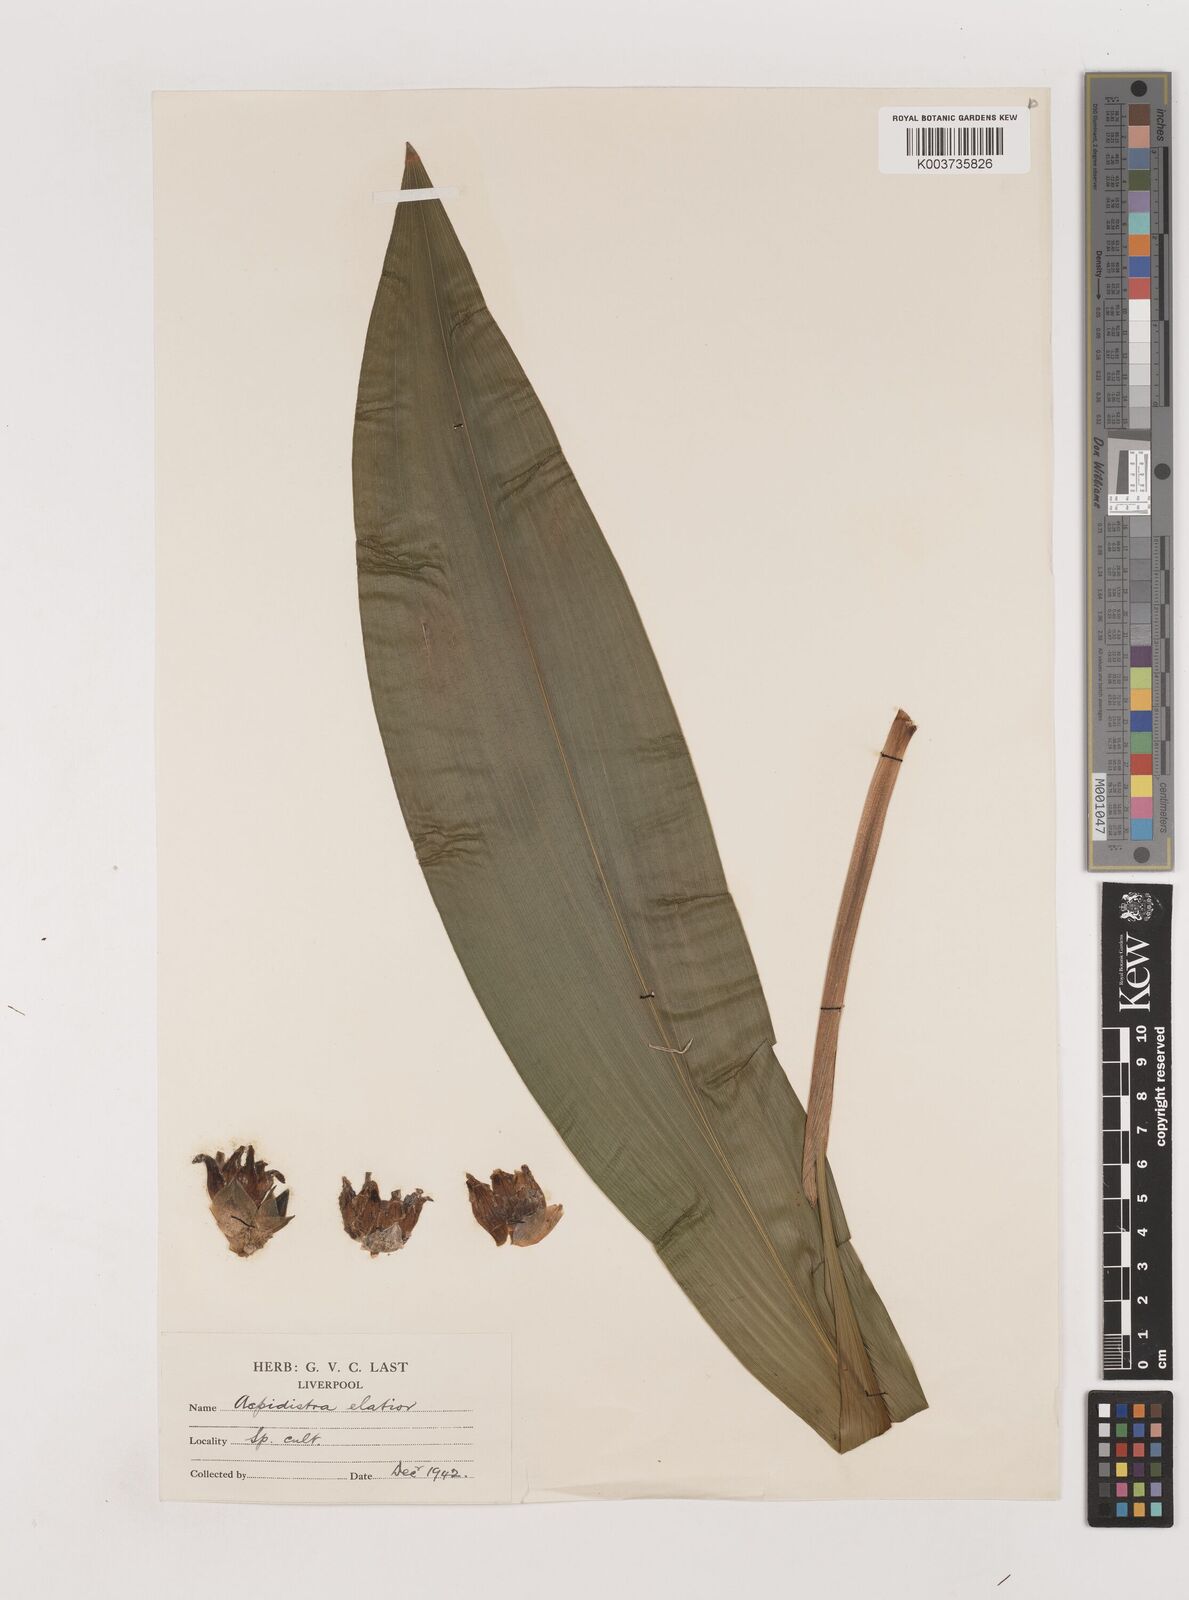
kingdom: Plantae
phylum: Tracheophyta
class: Liliopsida
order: Asparagales
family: Asparagaceae
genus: Aspidistra
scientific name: Aspidistra elatior
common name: Cast-iron-plant
